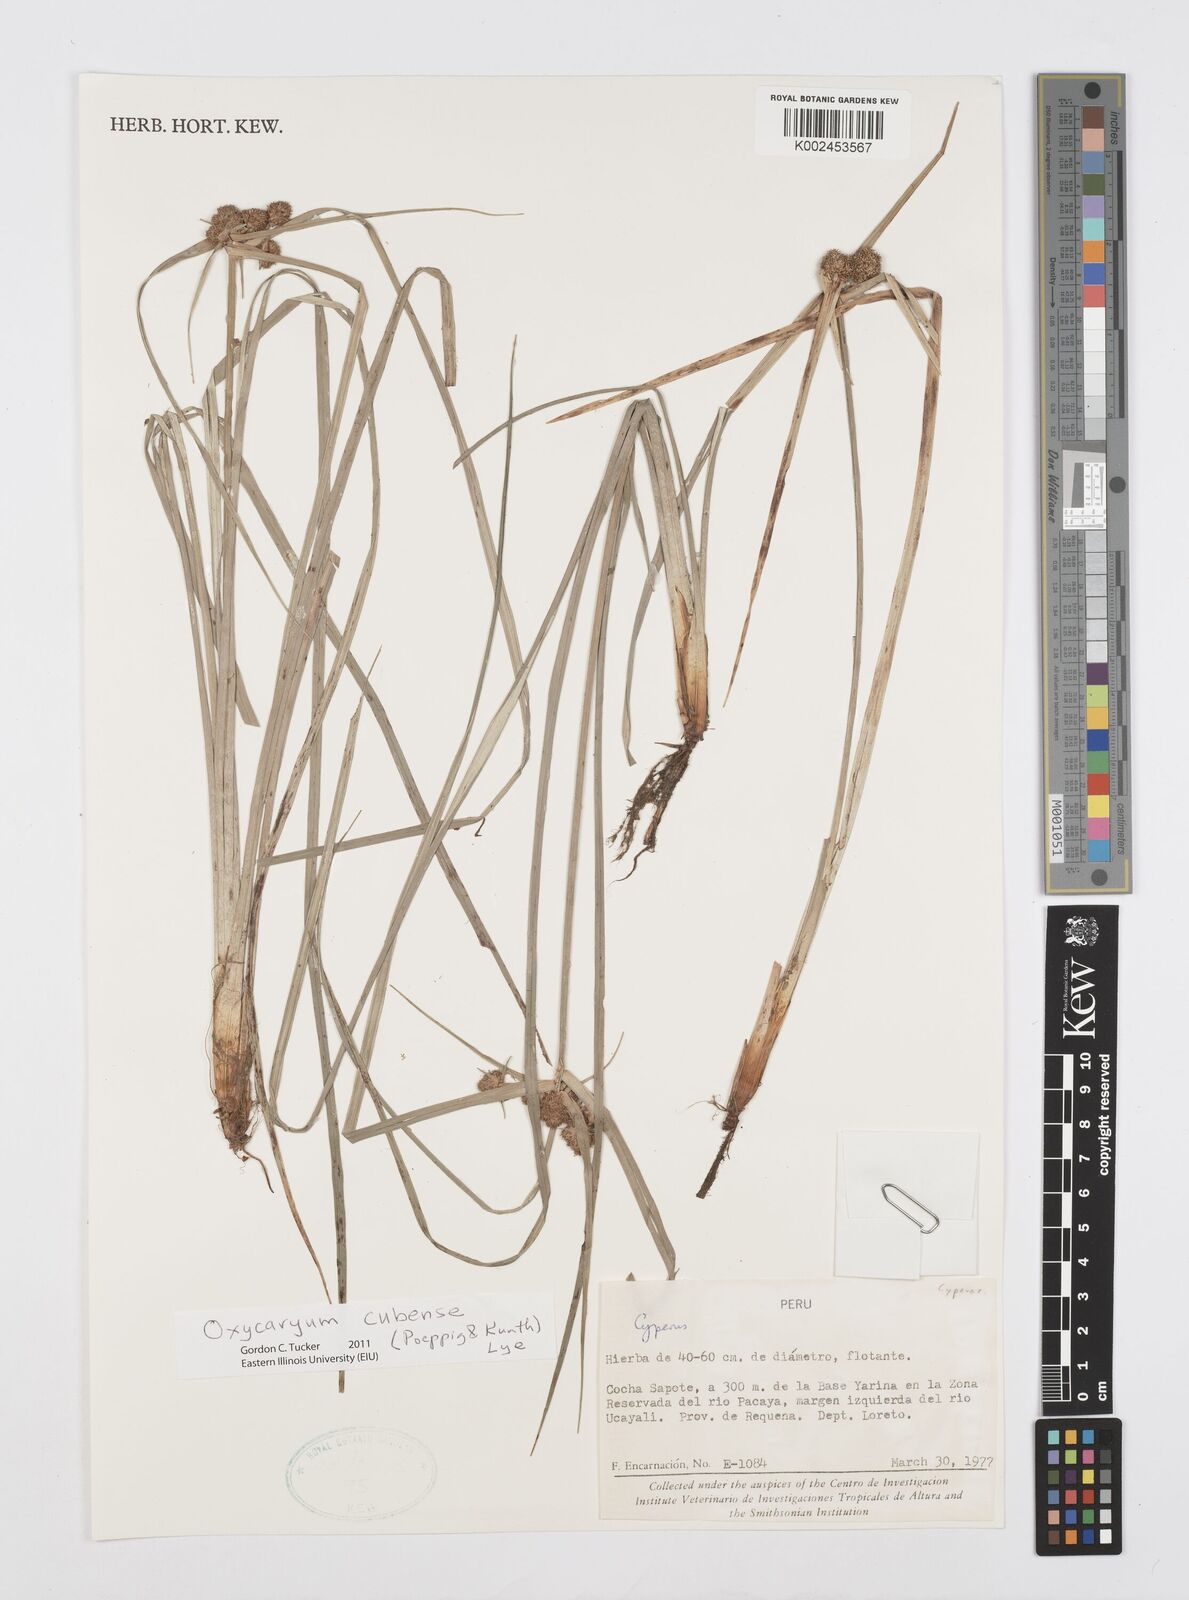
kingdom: Plantae
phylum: Tracheophyta
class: Liliopsida
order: Poales
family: Cyperaceae
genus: Cyperus
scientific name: Cyperus elegans
